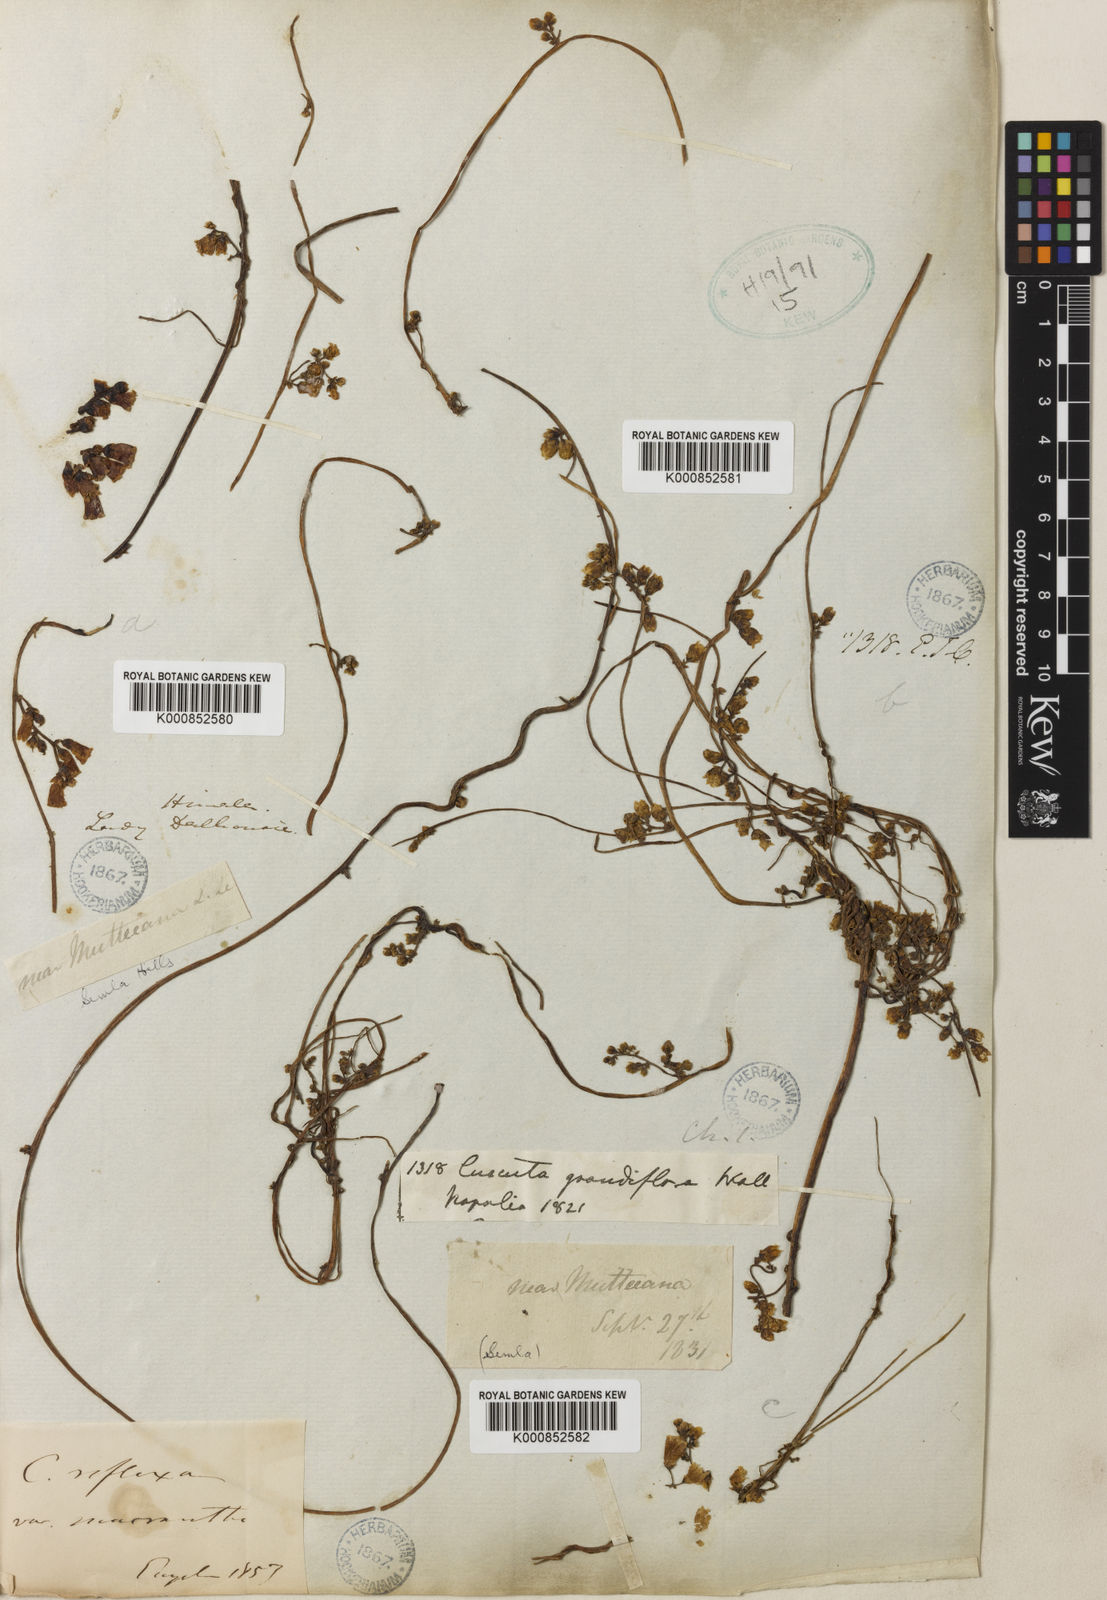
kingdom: Plantae
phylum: Tracheophyta
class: Magnoliopsida
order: Solanales
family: Convolvulaceae
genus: Cuscuta
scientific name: Cuscuta reflexa
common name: Giant dodder
